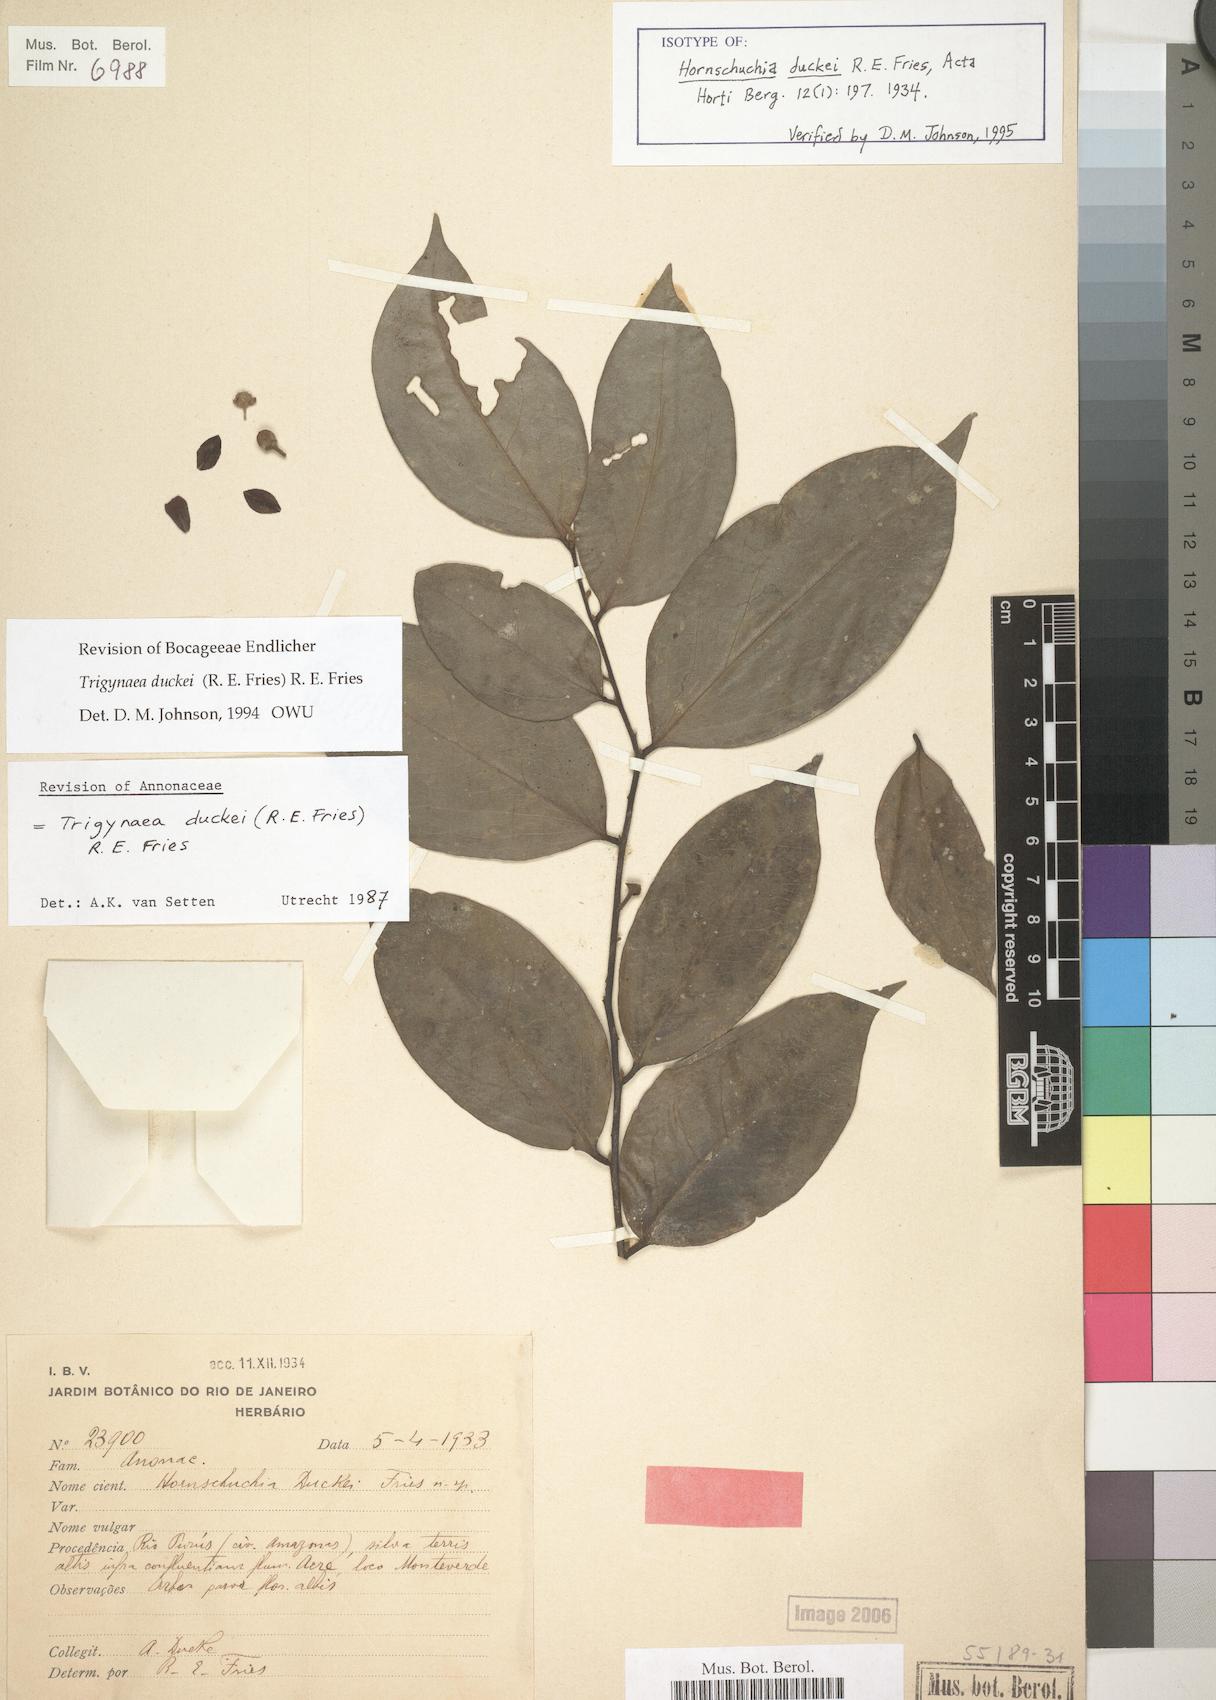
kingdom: Plantae
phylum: Tracheophyta
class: Magnoliopsida
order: Magnoliales
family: Annonaceae
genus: Trigynaea
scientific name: Trigynaea duckei
